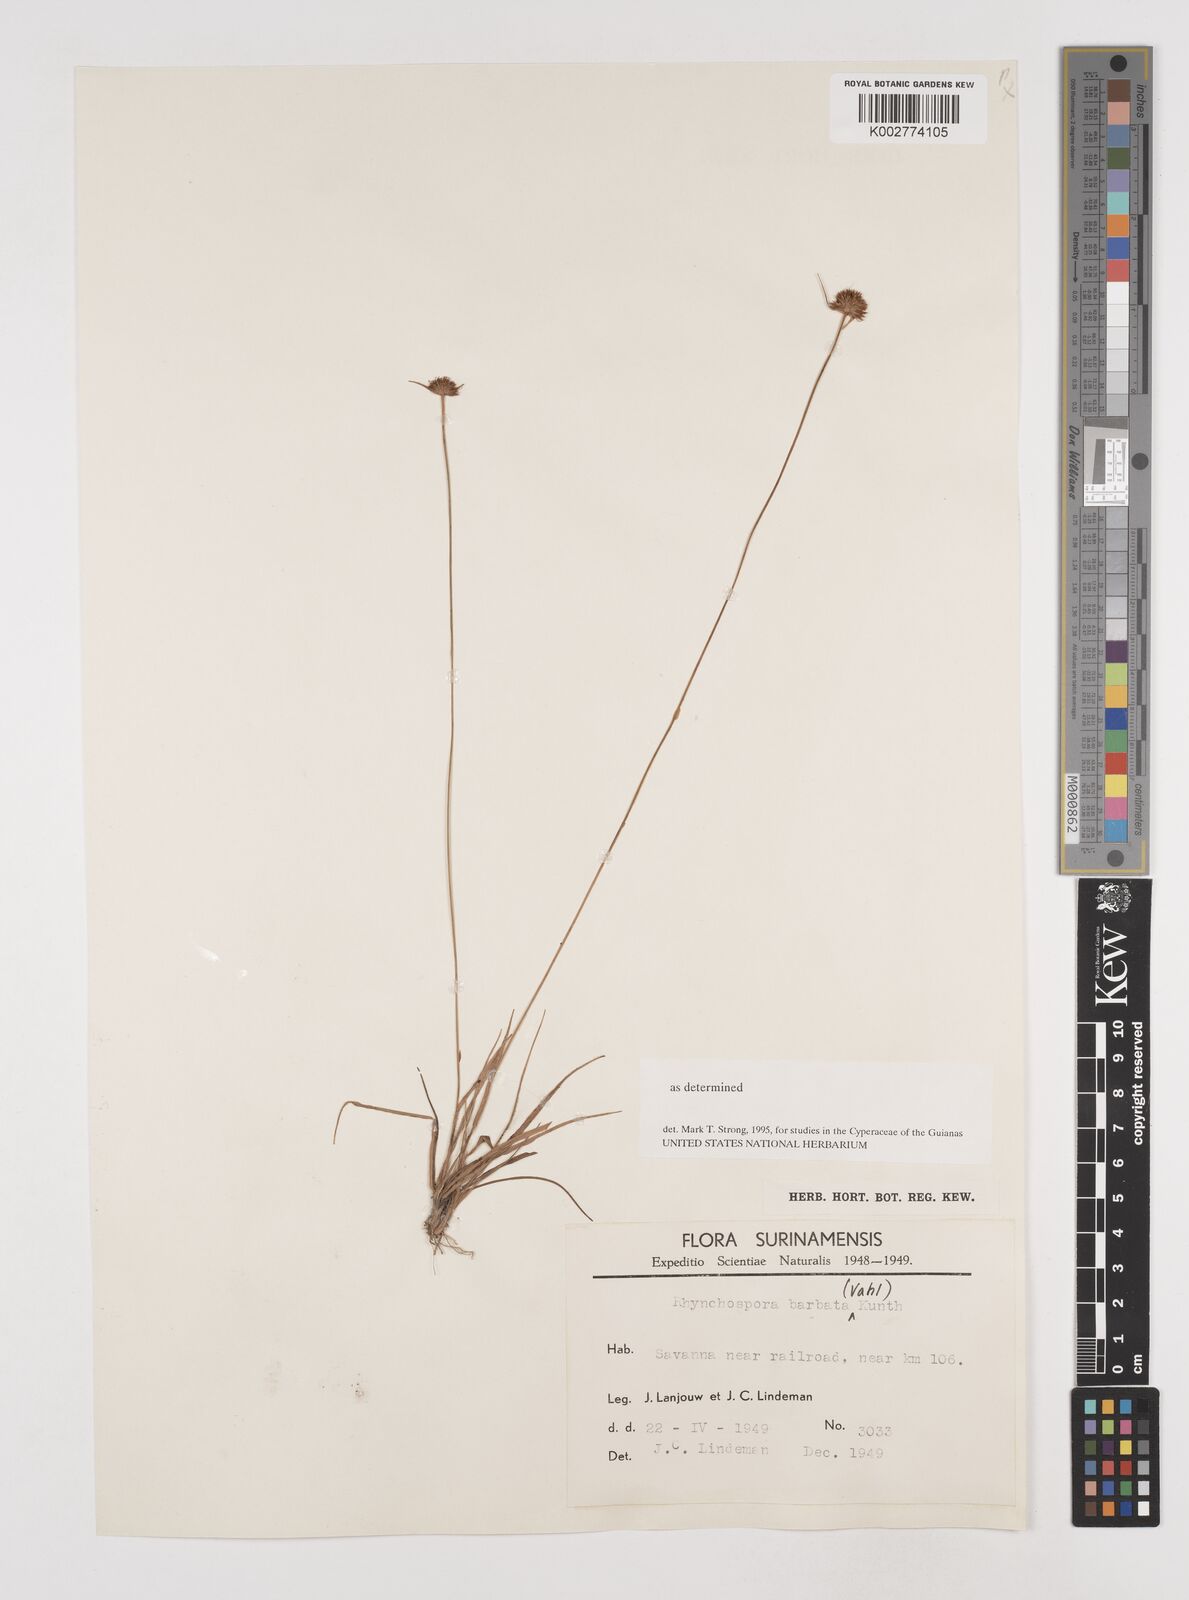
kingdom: Plantae
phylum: Tracheophyta
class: Liliopsida
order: Poales
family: Cyperaceae
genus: Rhynchospora
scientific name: Rhynchospora barbata
